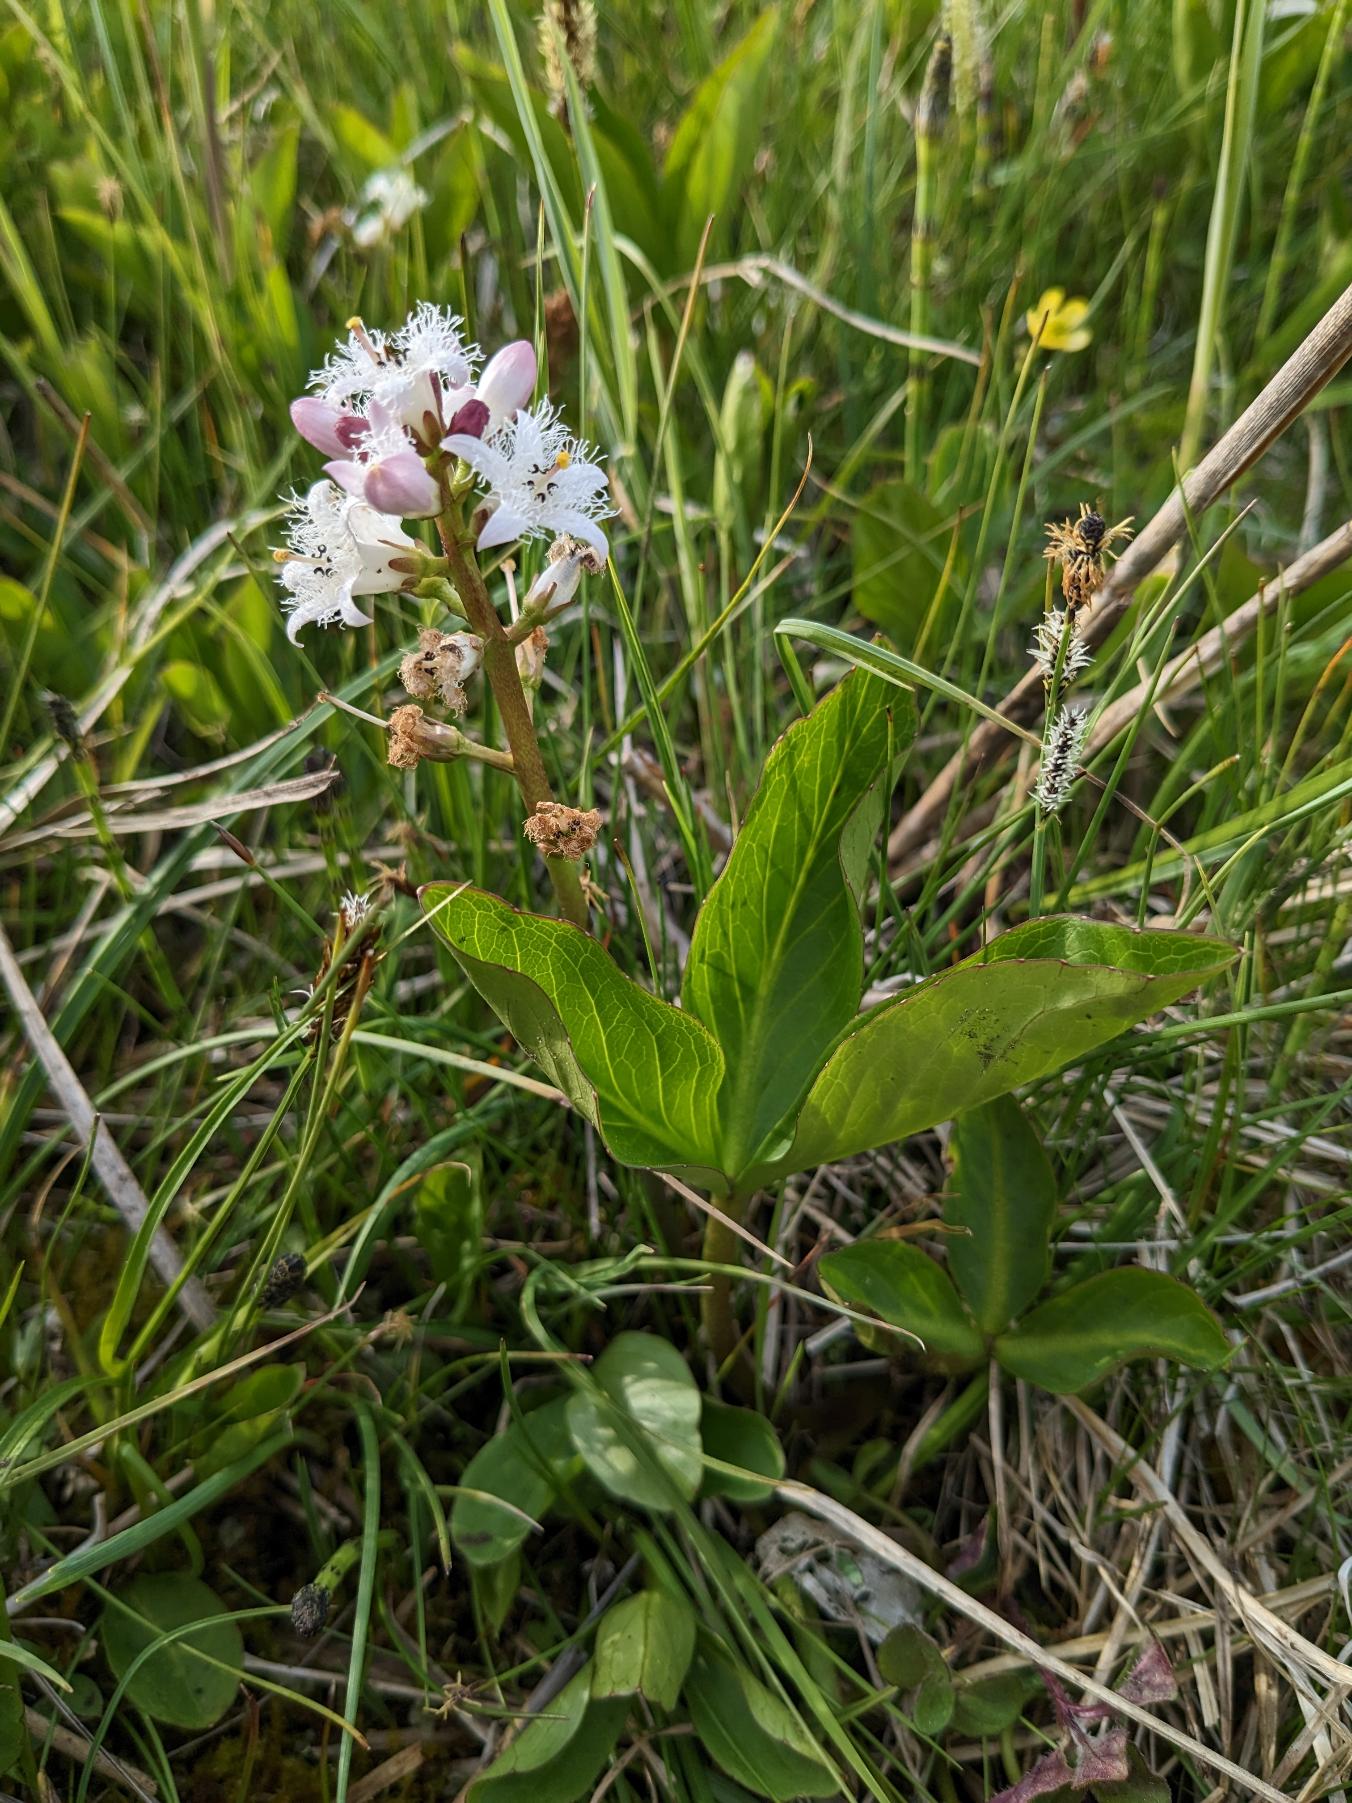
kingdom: Plantae
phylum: Tracheophyta
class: Magnoliopsida
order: Asterales
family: Menyanthaceae
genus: Menyanthes
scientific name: Menyanthes trifoliata
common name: Bukkeblad
